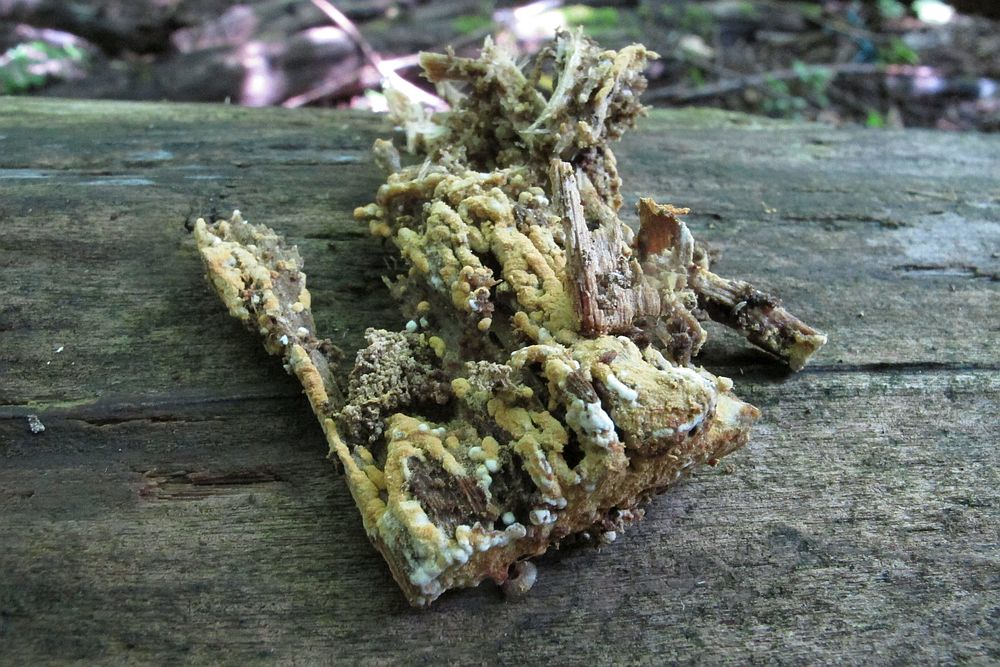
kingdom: Fungi
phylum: Basidiomycota
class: Agaricomycetes
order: Cantharellales
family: Botryobasidiaceae
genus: Botryobasidium
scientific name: Botryobasidium aureum
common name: gylden spindhinde
